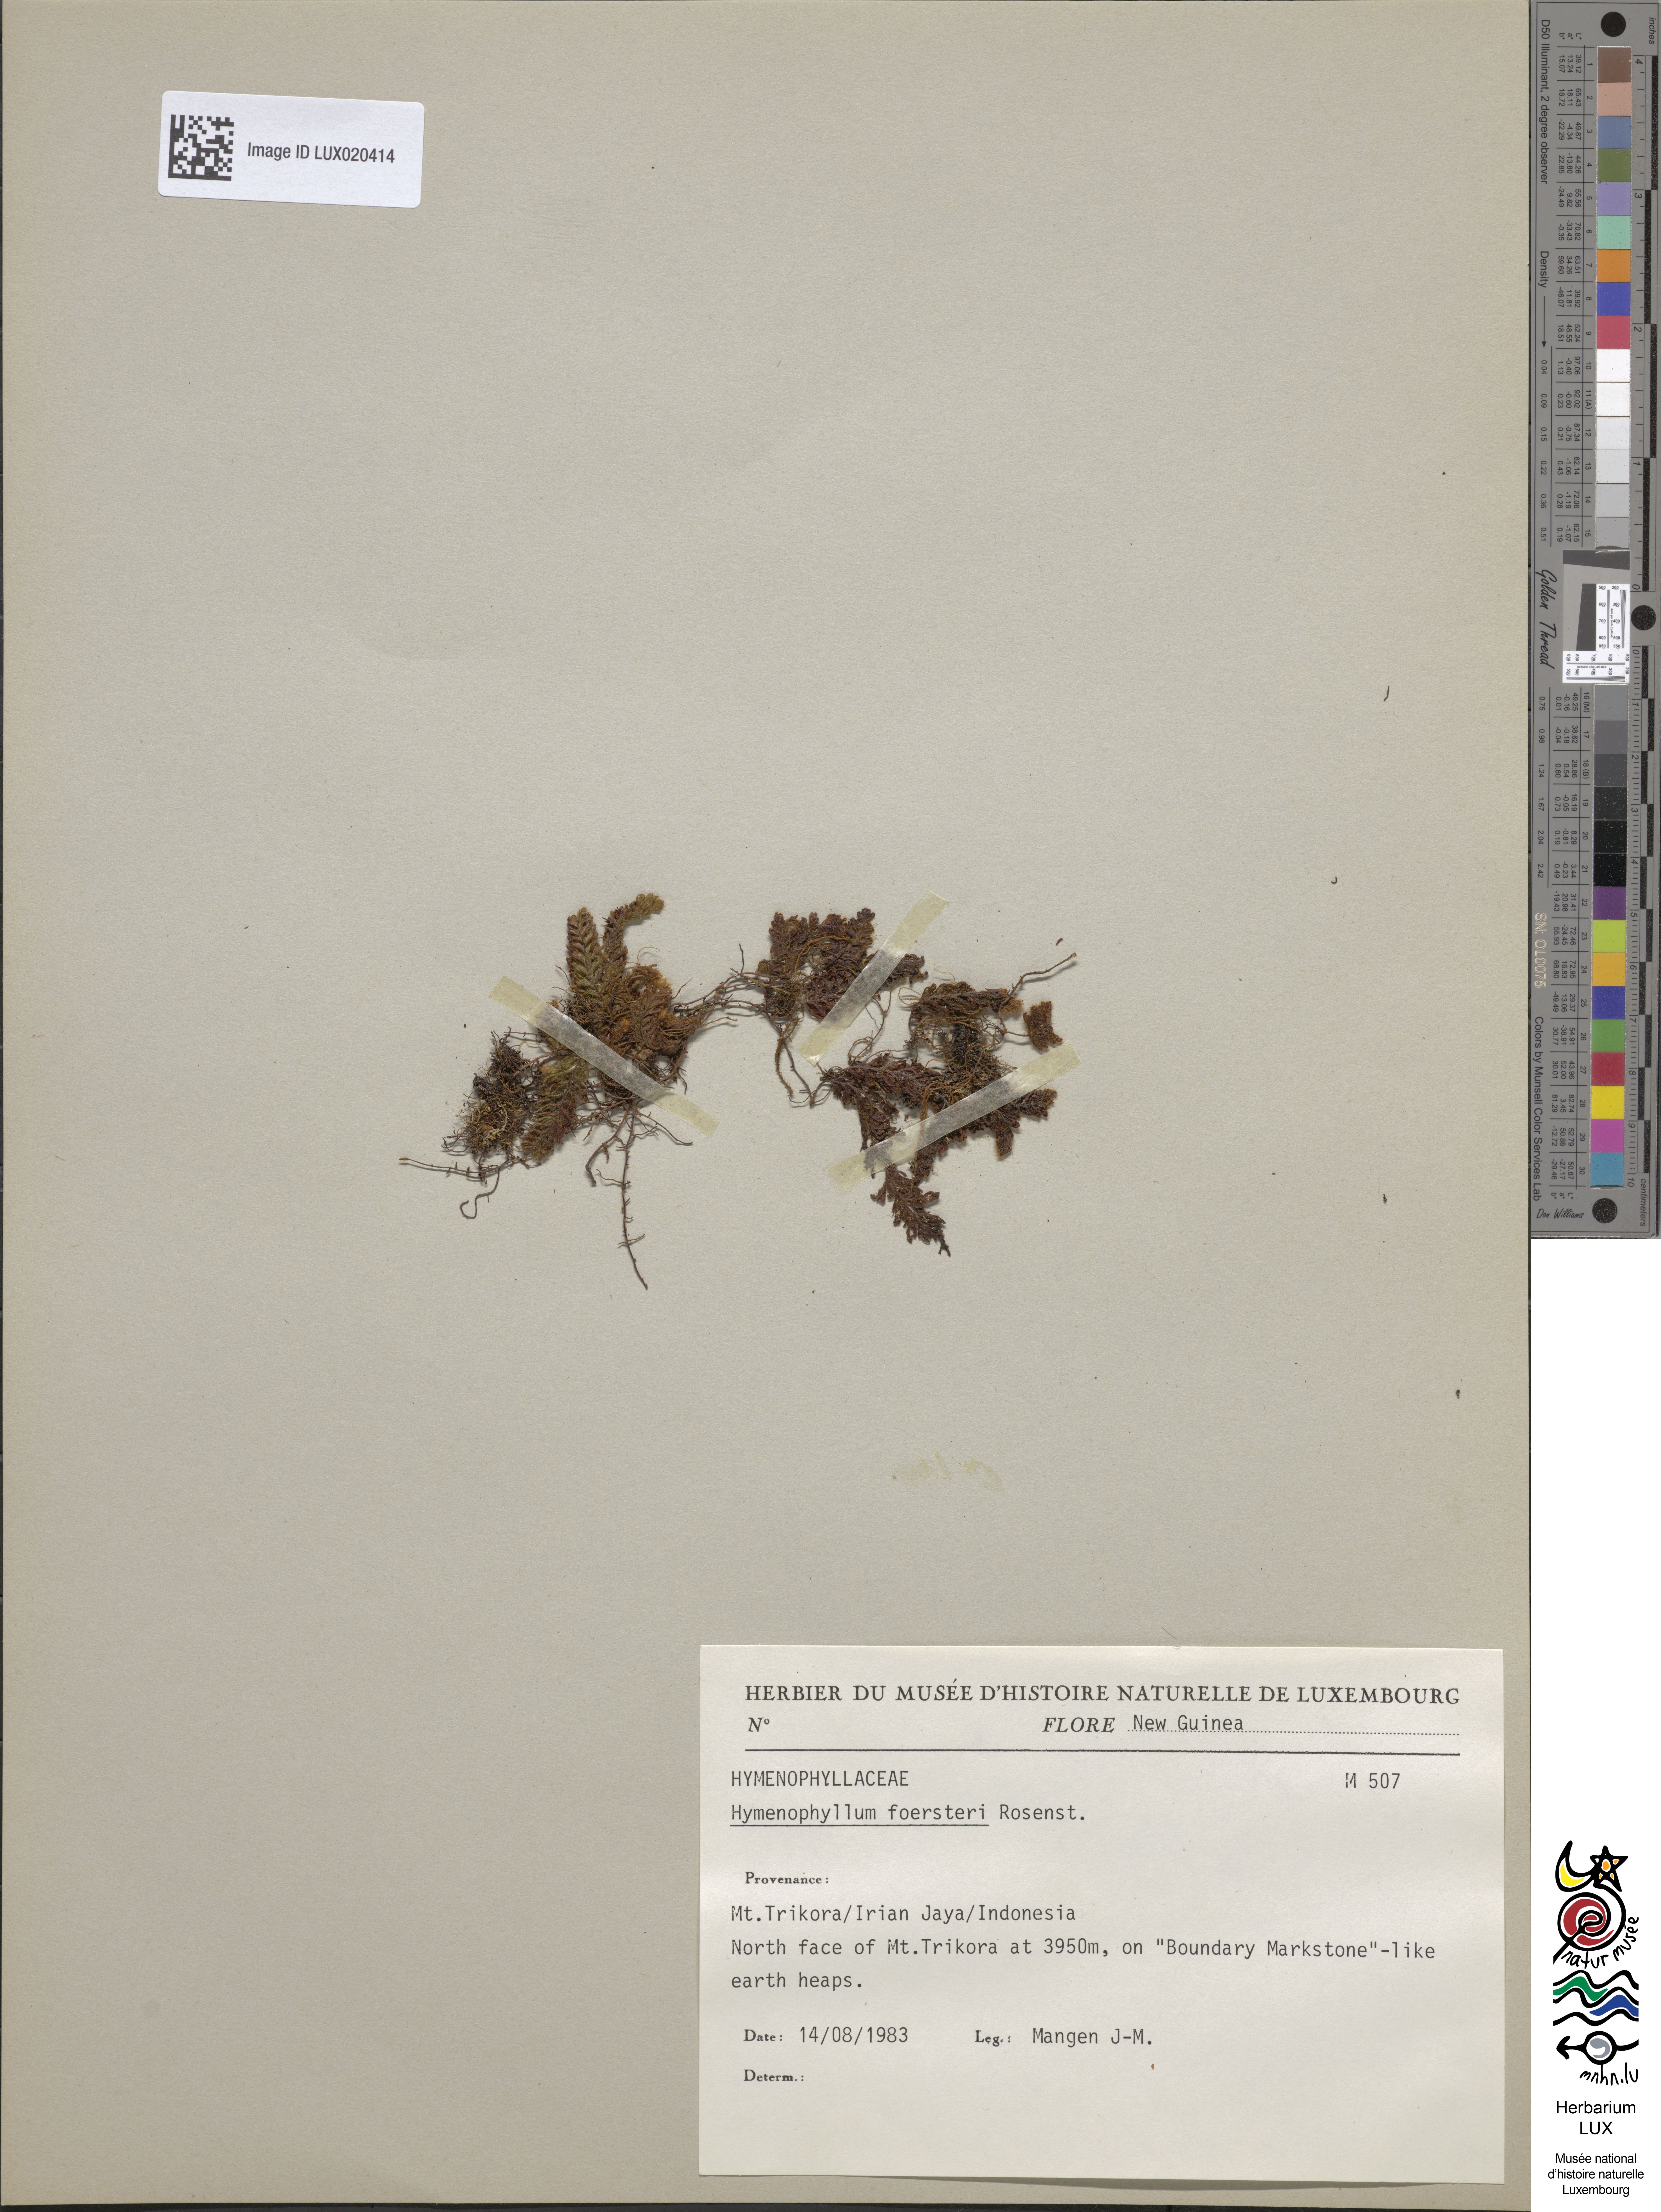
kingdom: Plantae
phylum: Tracheophyta
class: Polypodiopsida
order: Hymenophyllales
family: Hymenophyllaceae
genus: Hymenophyllum
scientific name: Hymenophyllum foersteri
